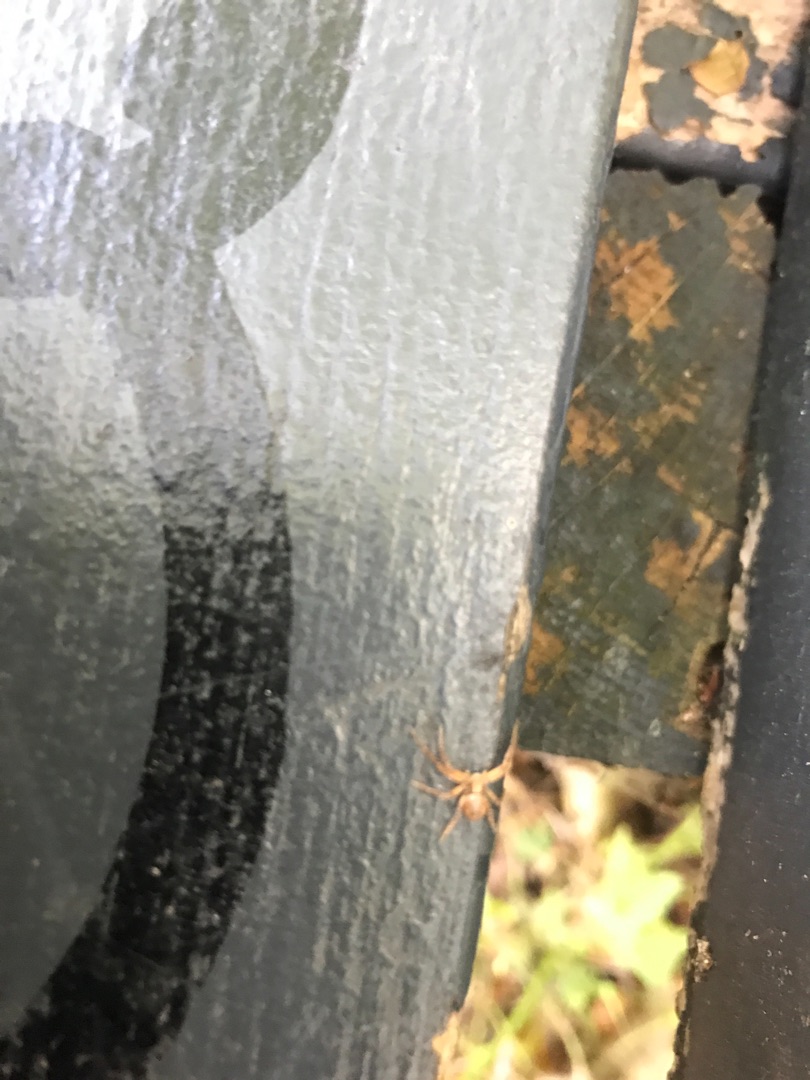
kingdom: Animalia
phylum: Arthropoda
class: Arachnida
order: Araneae
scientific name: Araneae
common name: Edderkopper
